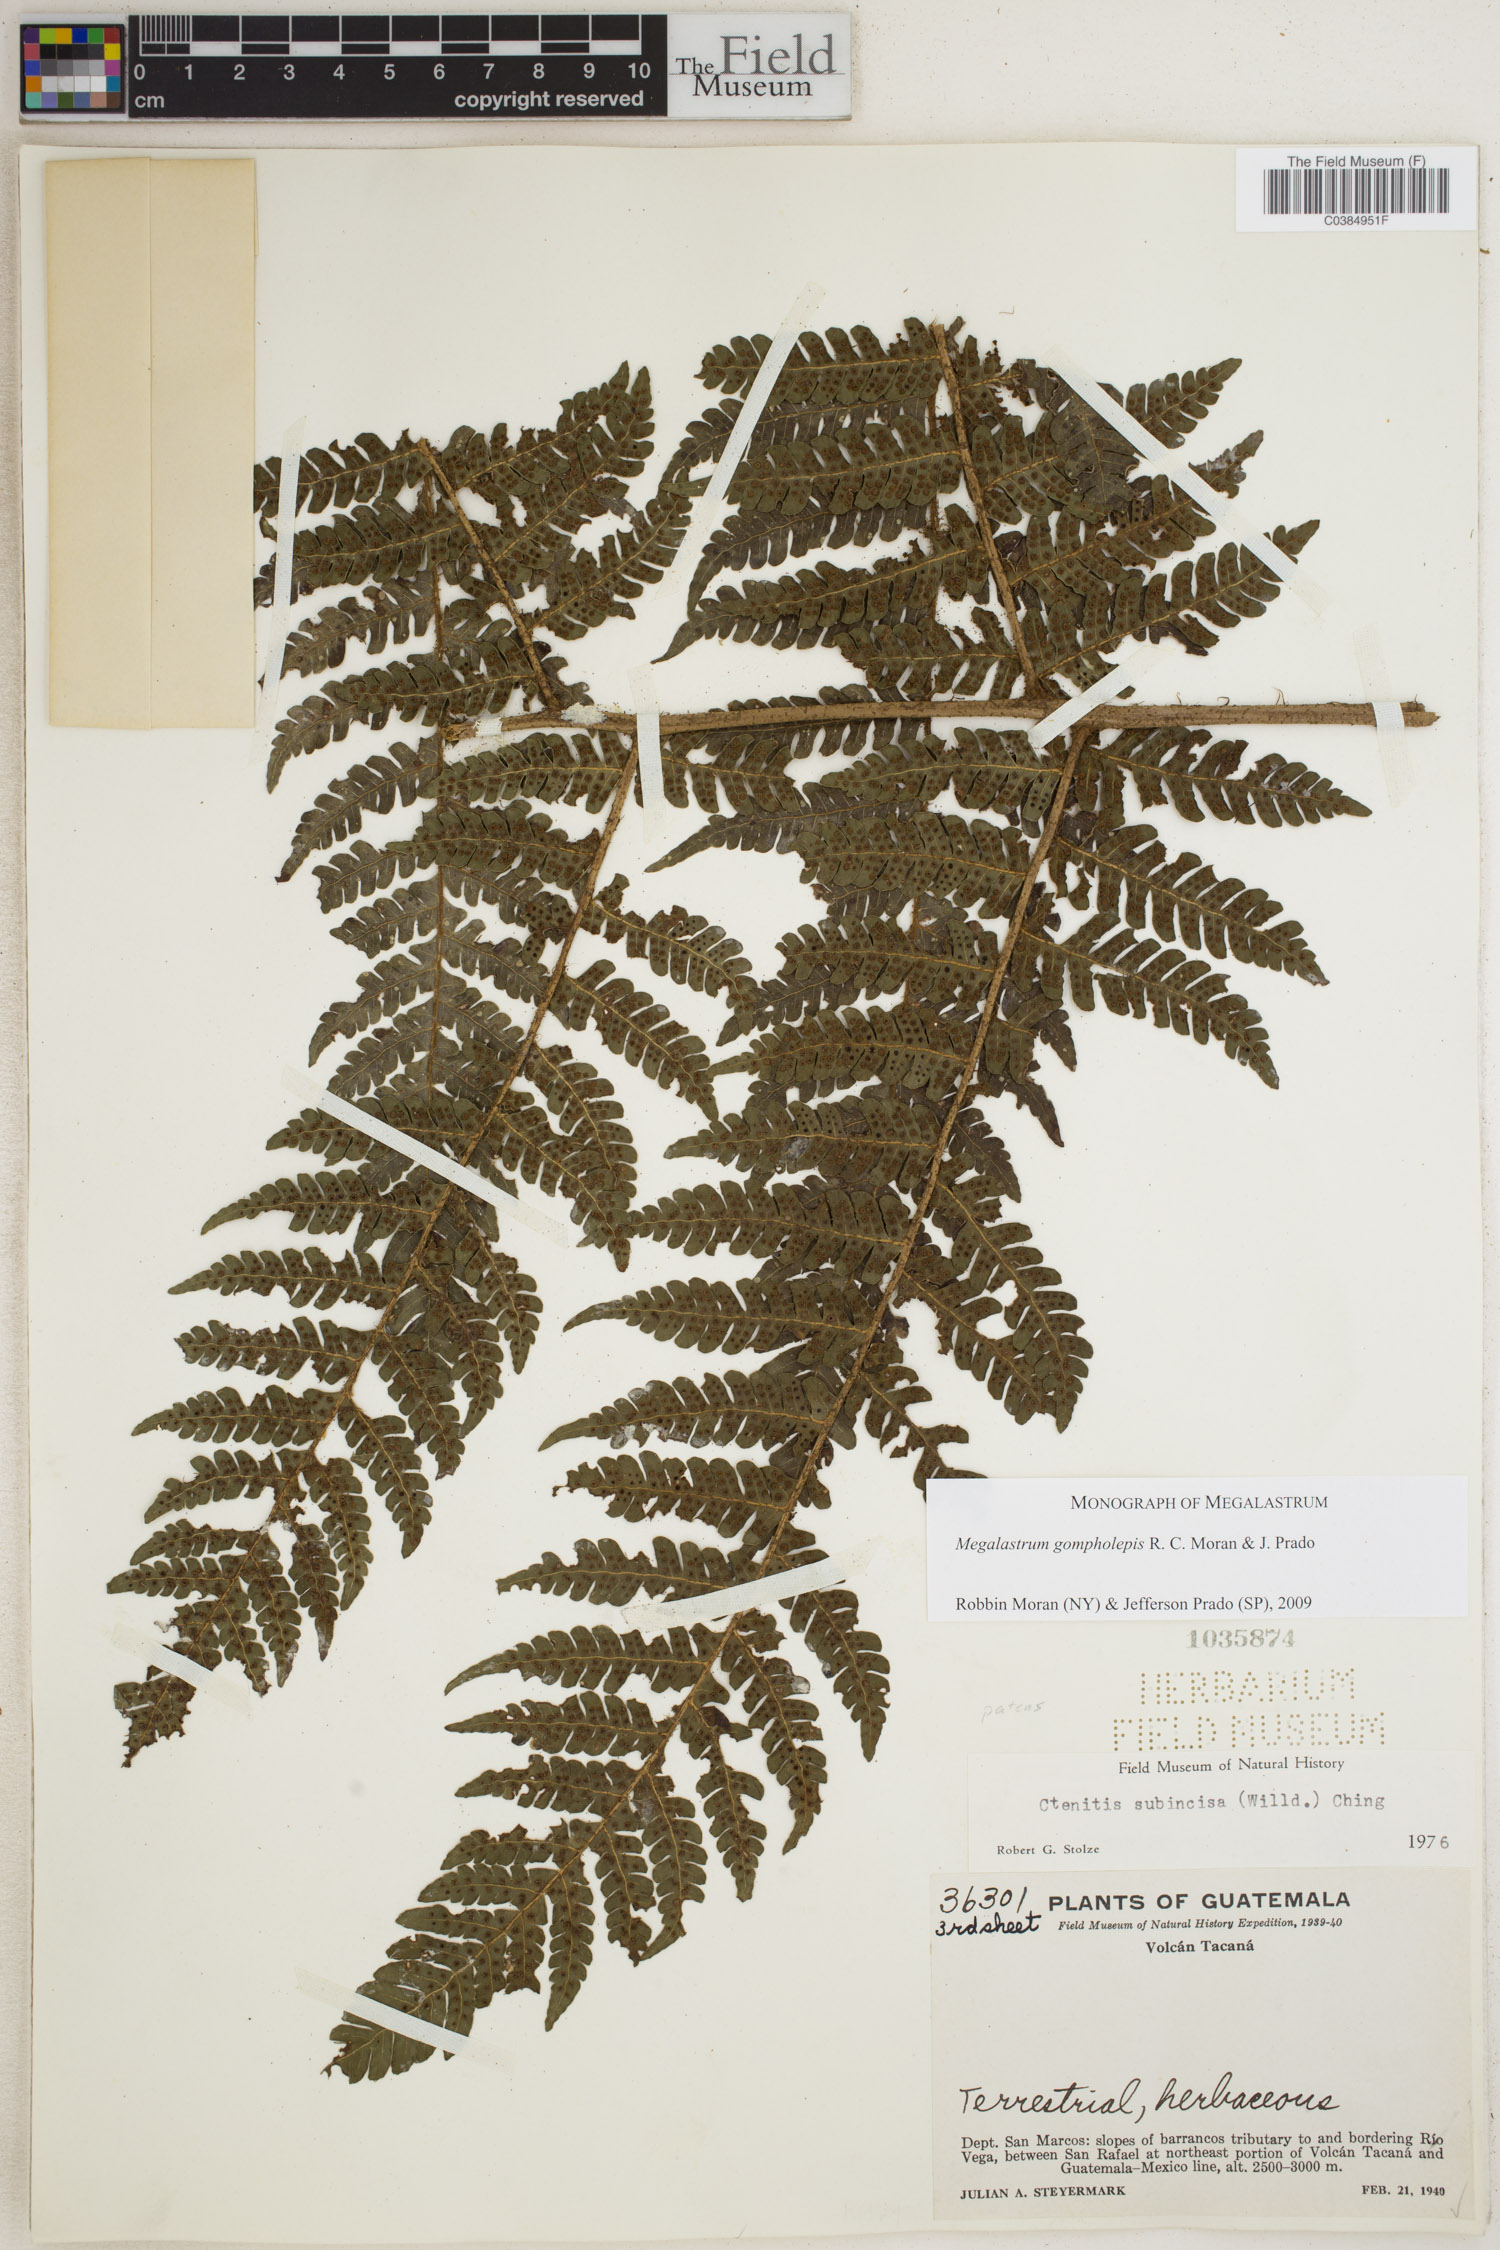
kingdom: Plantae
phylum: Tracheophyta
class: Polypodiopsida
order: Polypodiales
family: Dryopteridaceae
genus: Megalastrum
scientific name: Megalastrum gompholepis
